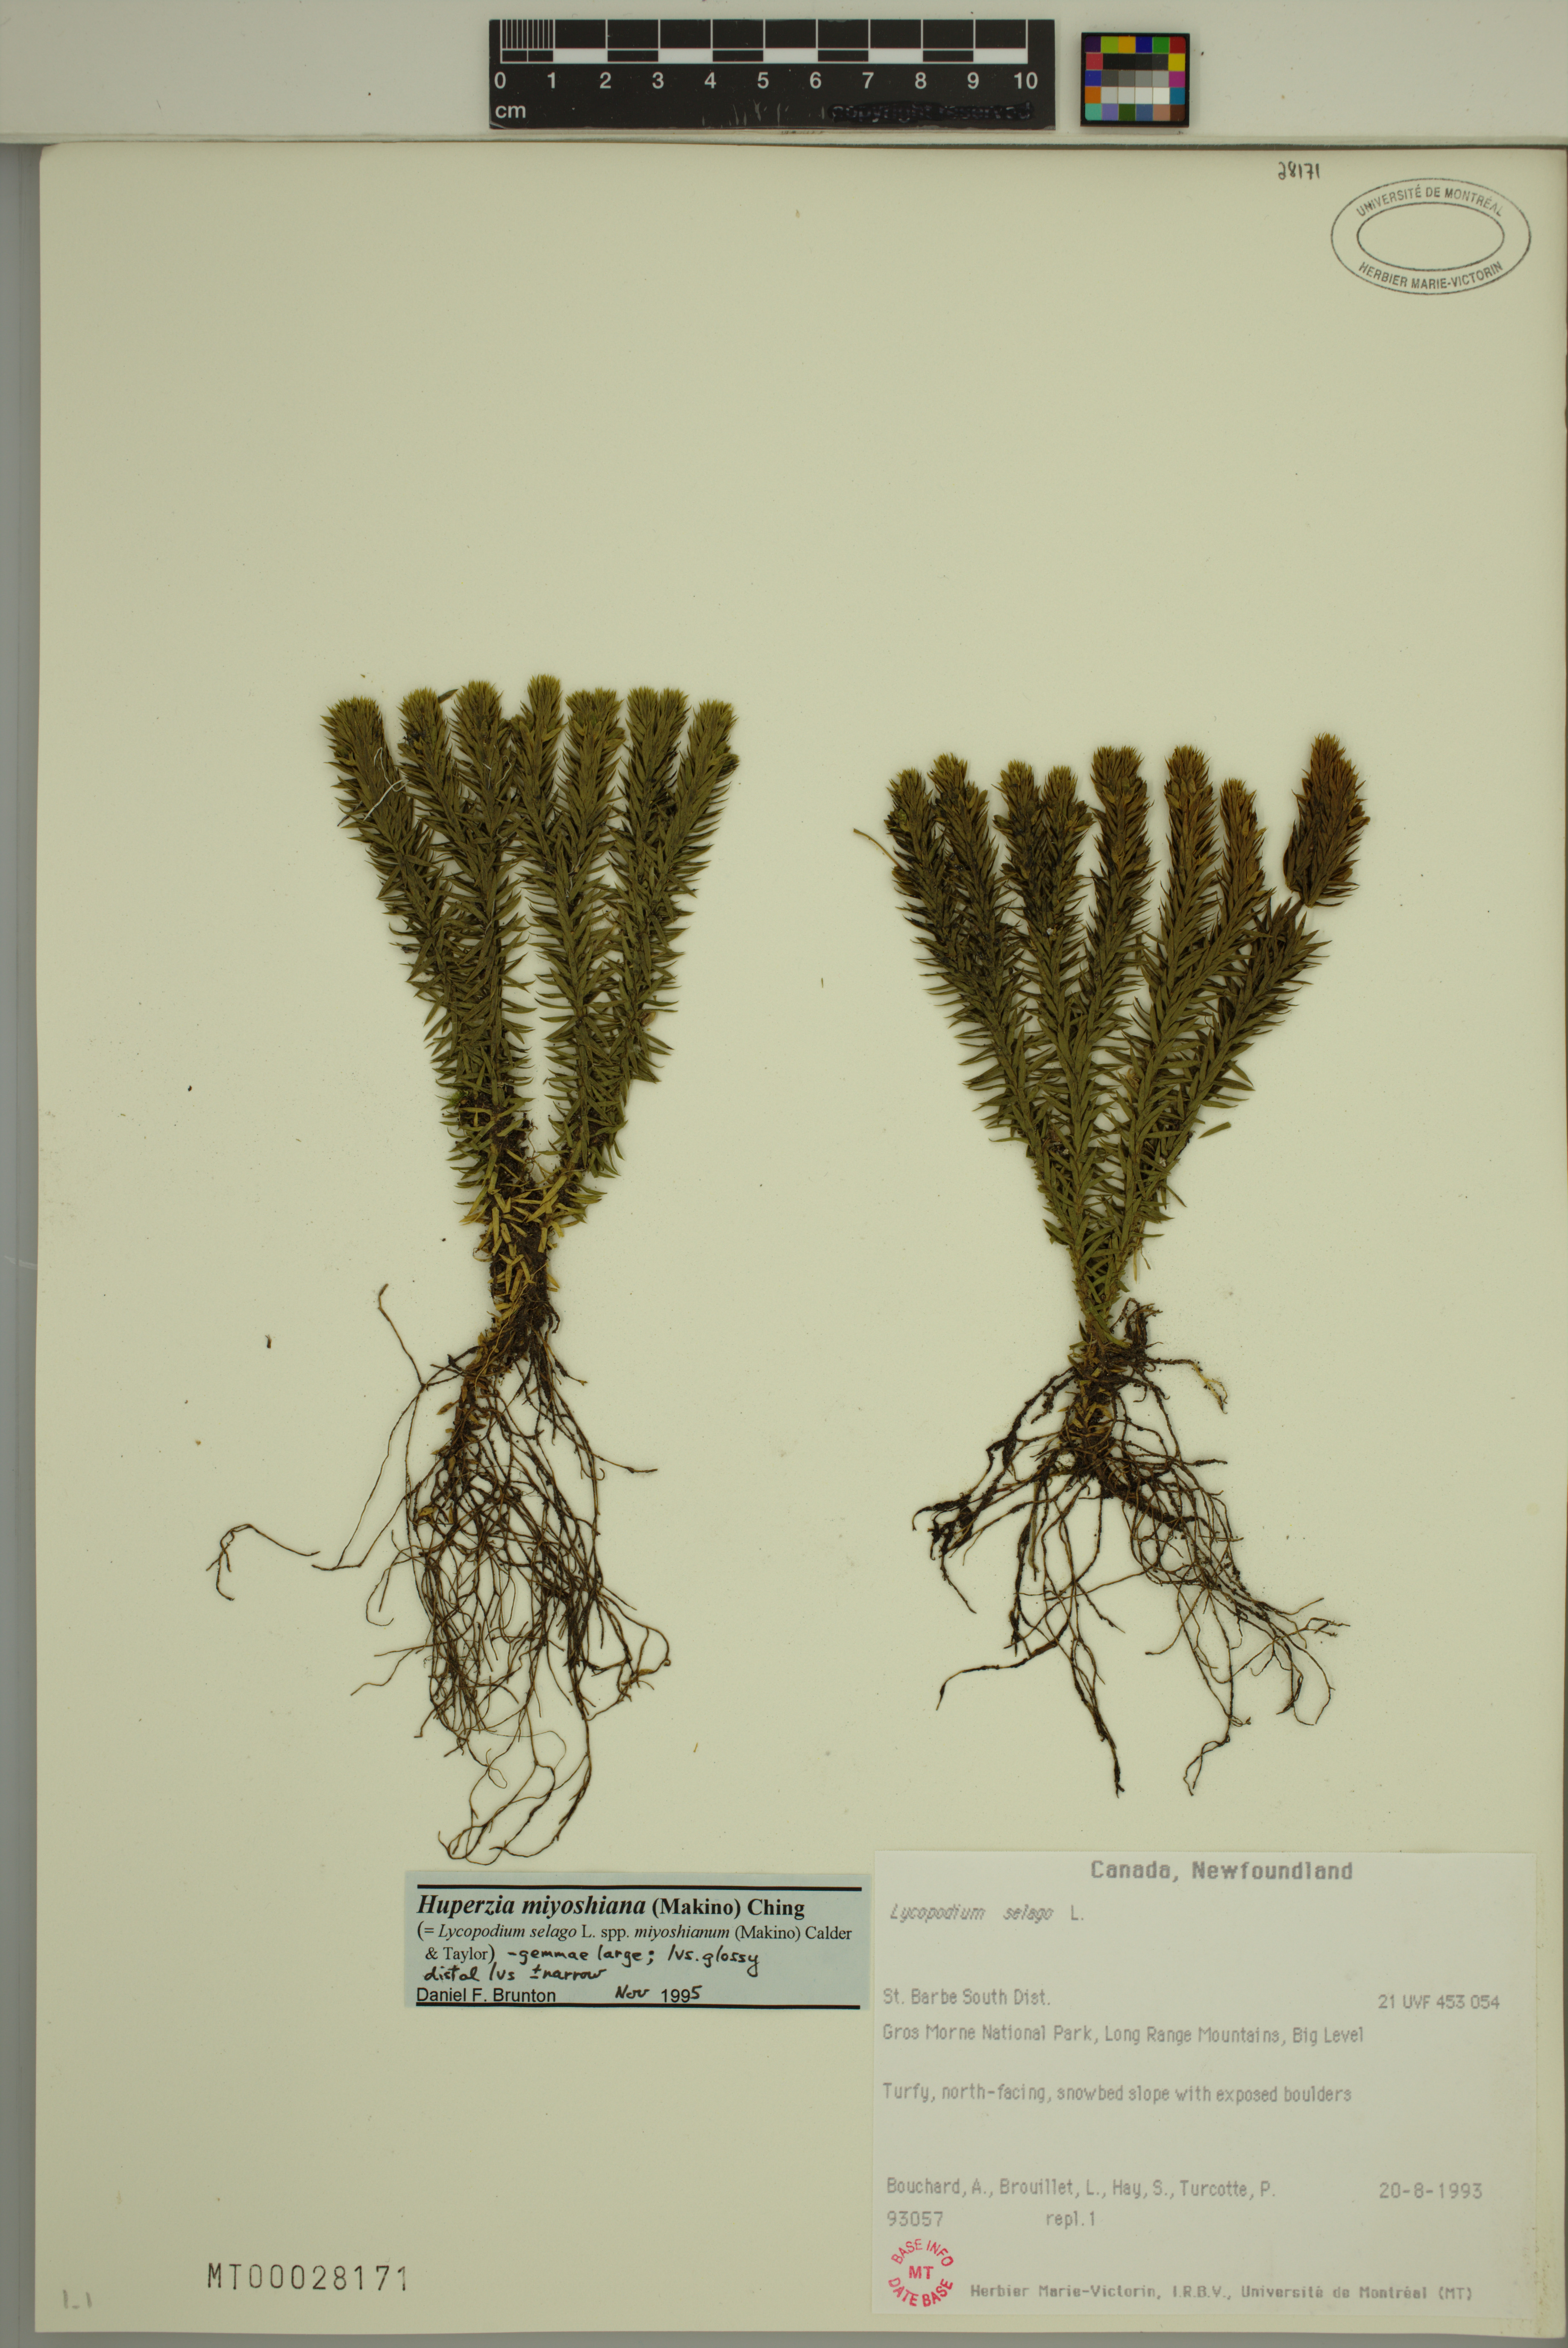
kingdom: Plantae
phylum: Tracheophyta
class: Lycopodiopsida
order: Lycopodiales
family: Lycopodiaceae
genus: Huperzia
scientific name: Huperzia miyoshiana
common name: Chinese clubmoss
